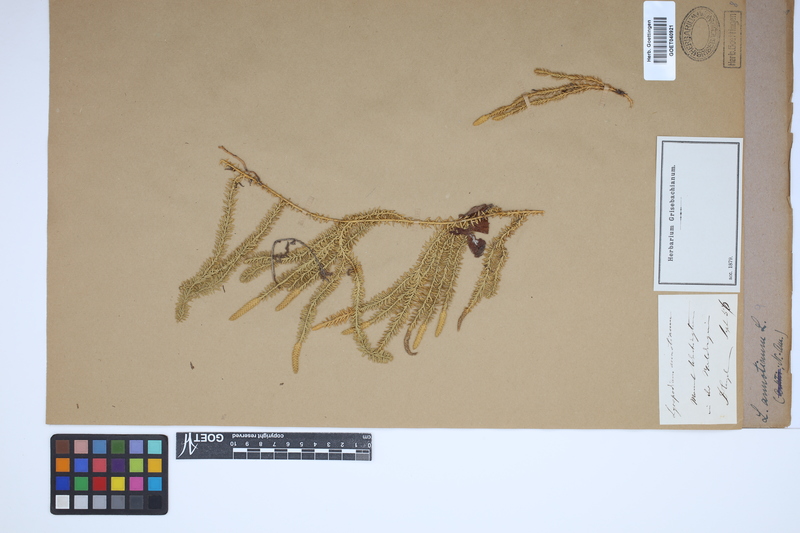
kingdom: Plantae
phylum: Tracheophyta
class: Lycopodiopsida
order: Lycopodiales
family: Lycopodiaceae
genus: Spinulum
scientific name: Spinulum annotinum
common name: Interrupted club-moss
